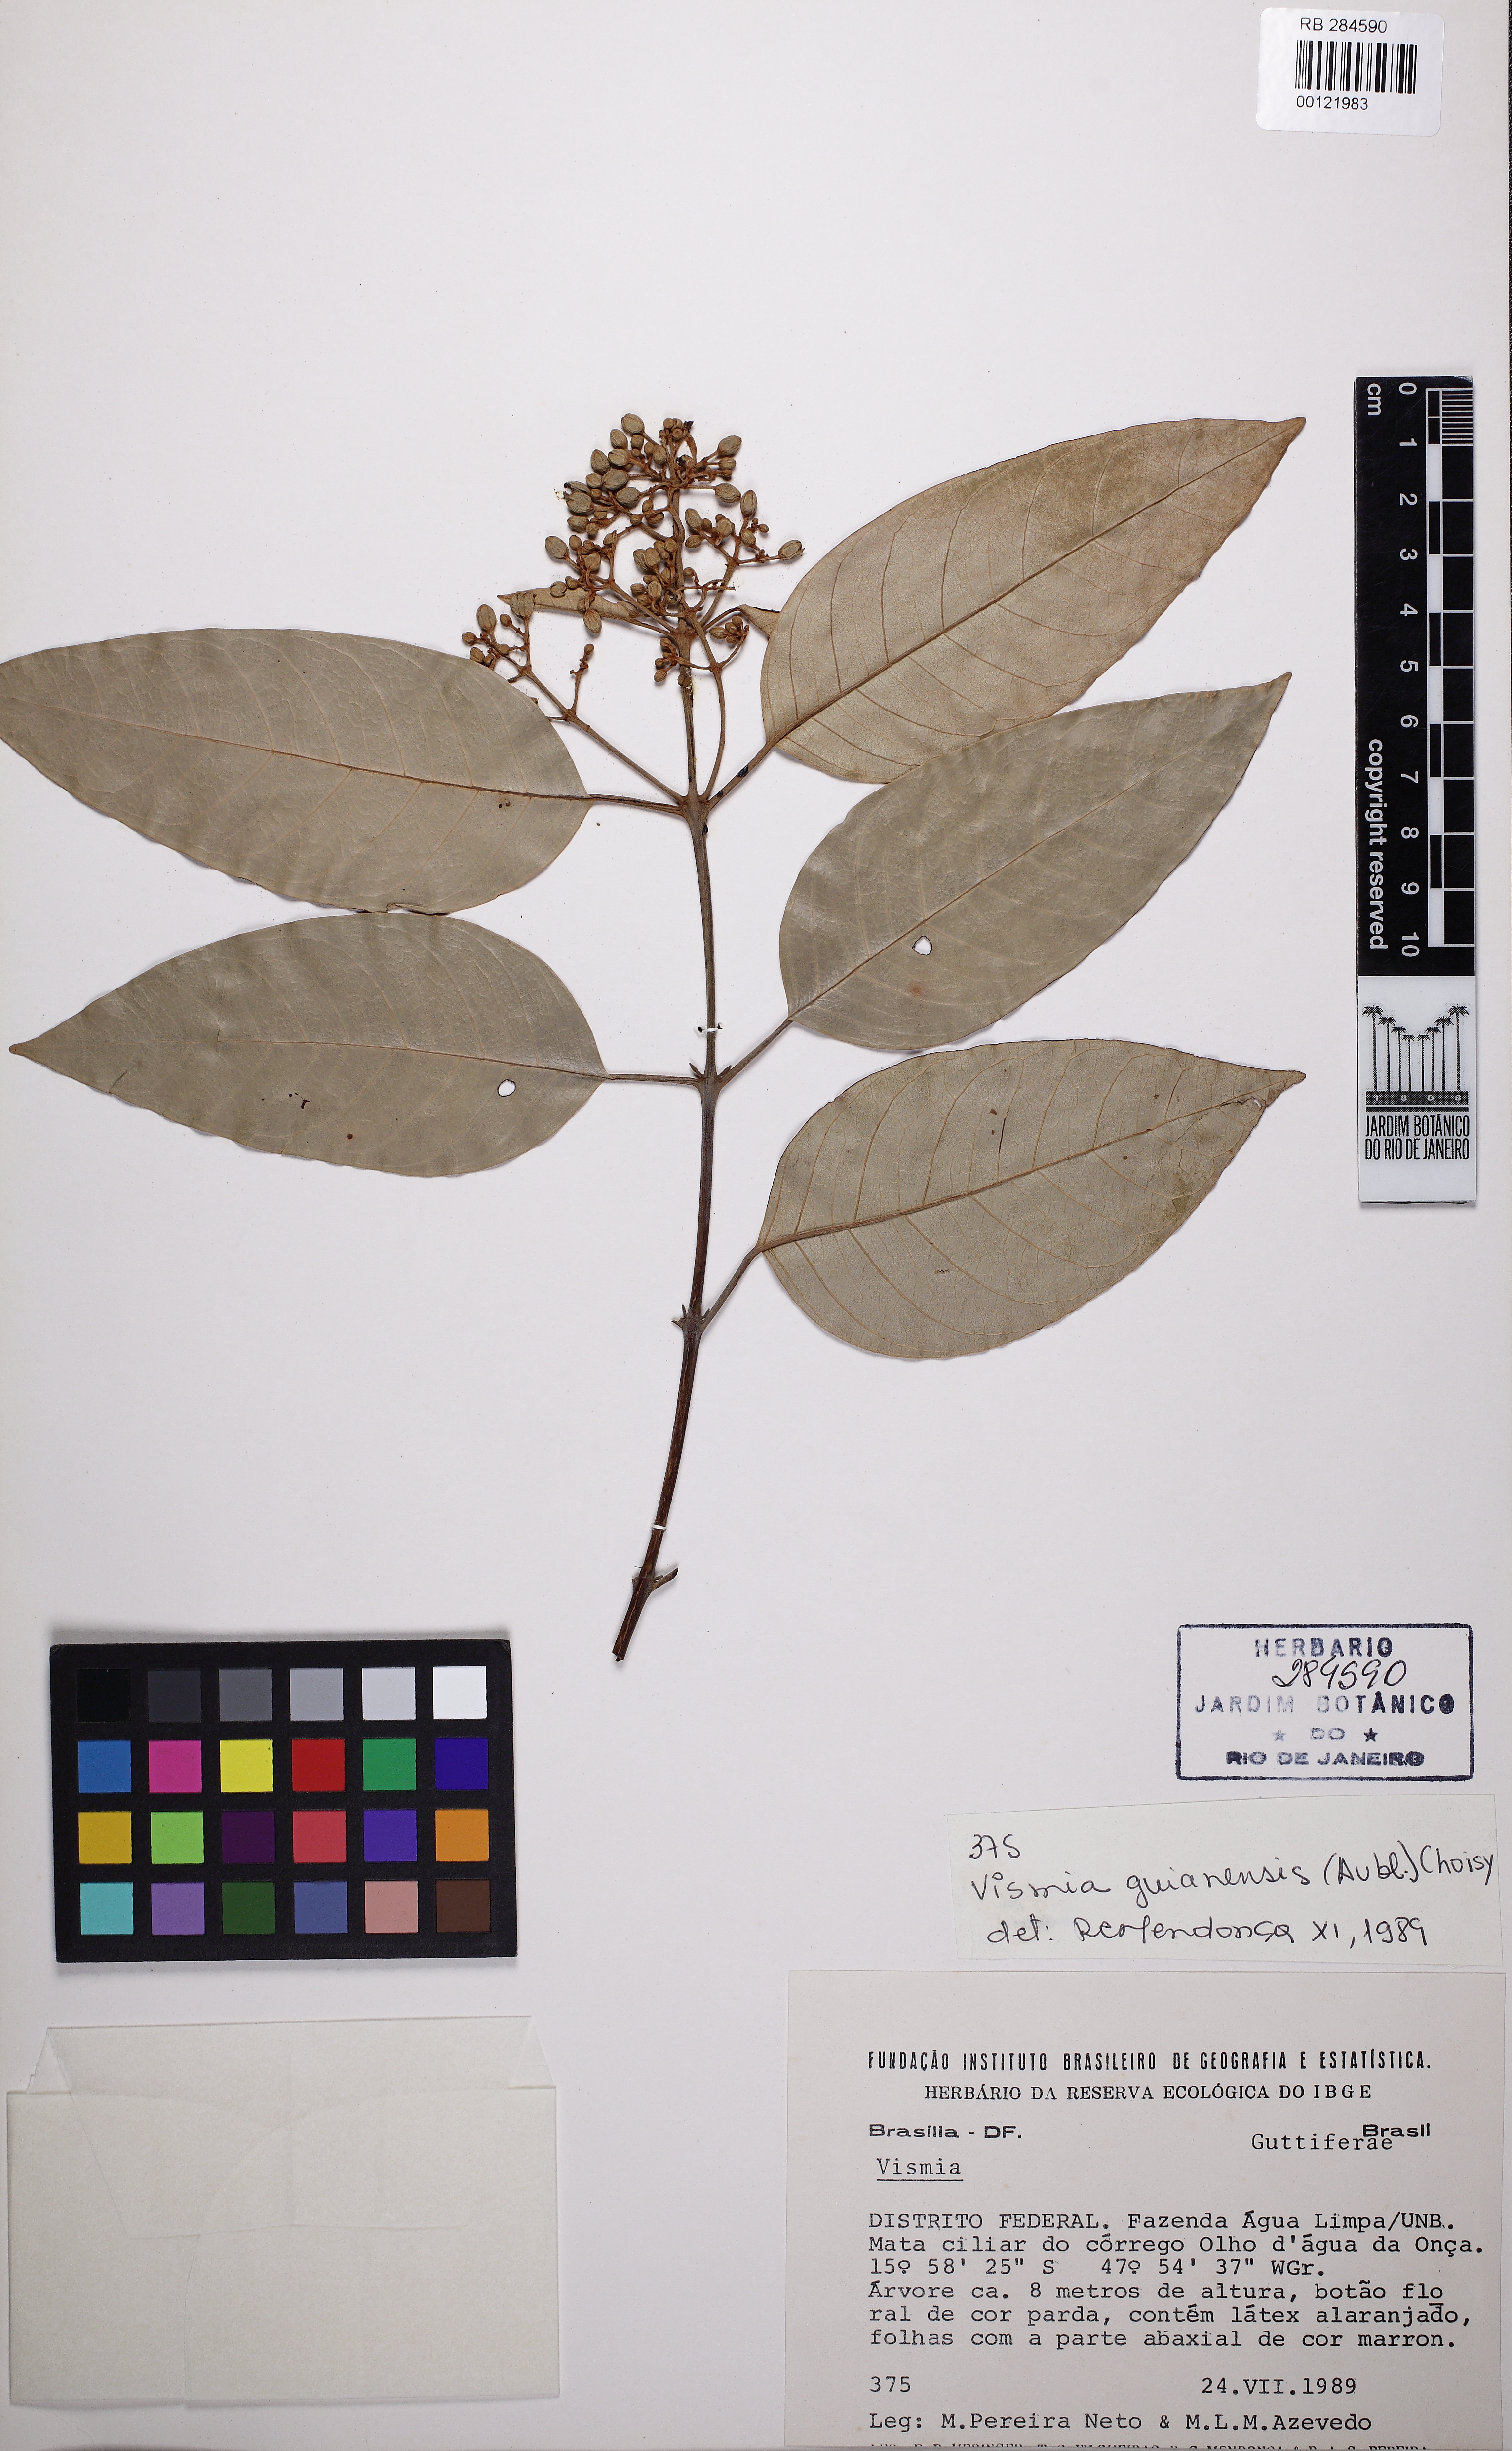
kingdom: Plantae
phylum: Tracheophyta
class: Magnoliopsida
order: Malpighiales
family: Hypericaceae
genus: Vismia
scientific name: Vismia gracilis
